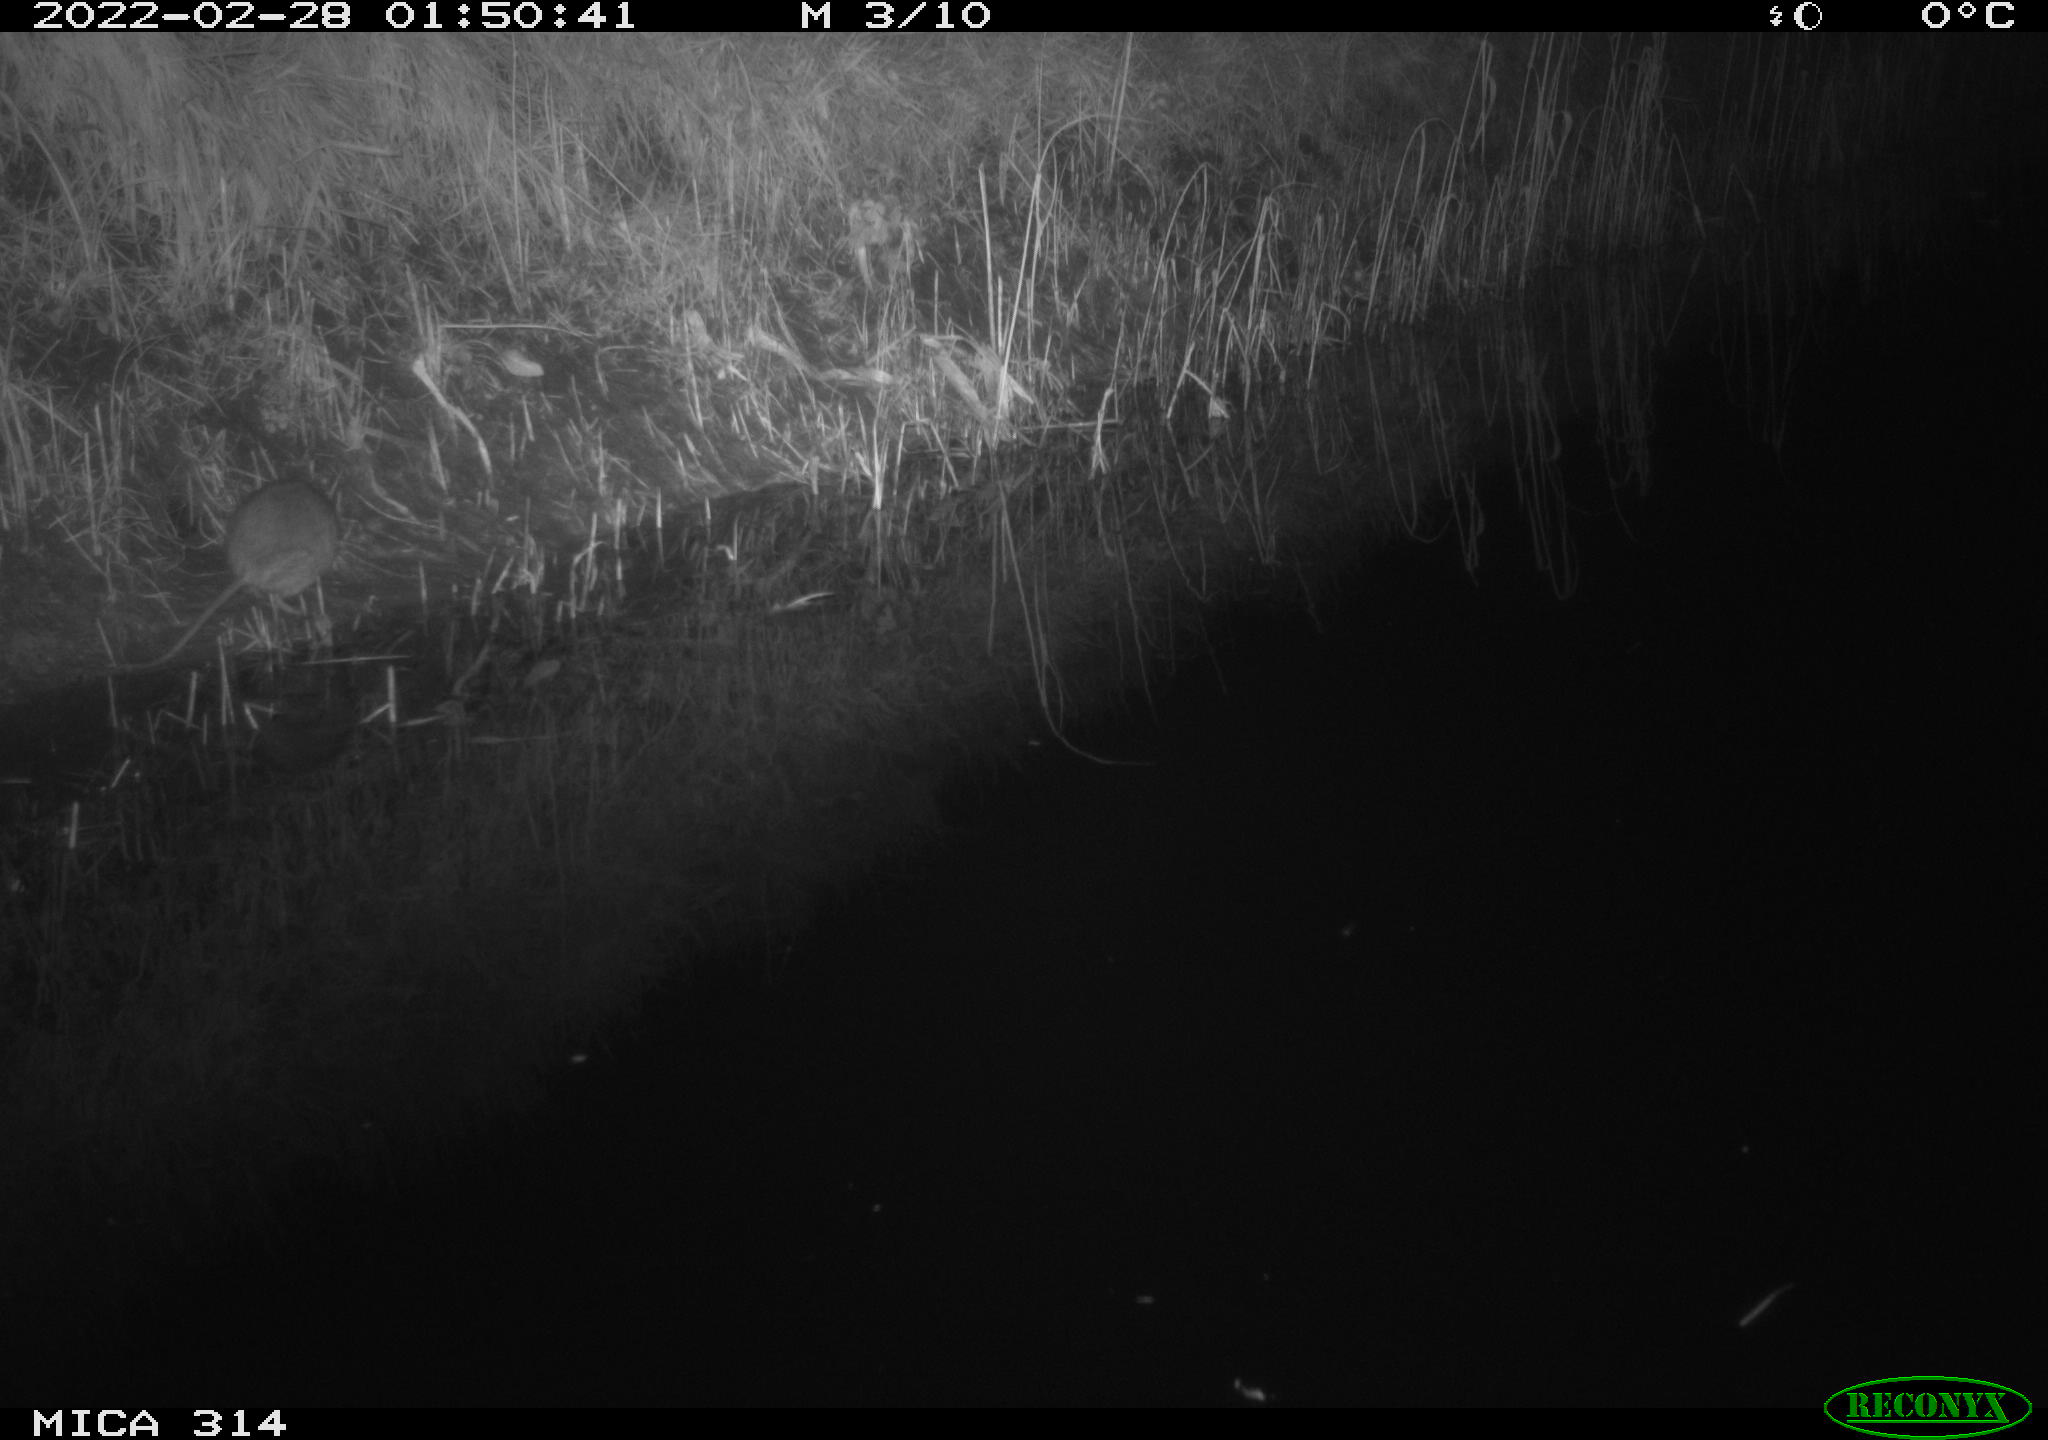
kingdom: Animalia
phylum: Chordata
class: Mammalia
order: Rodentia
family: Muridae
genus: Rattus
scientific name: Rattus norvegicus
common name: Brown rat
